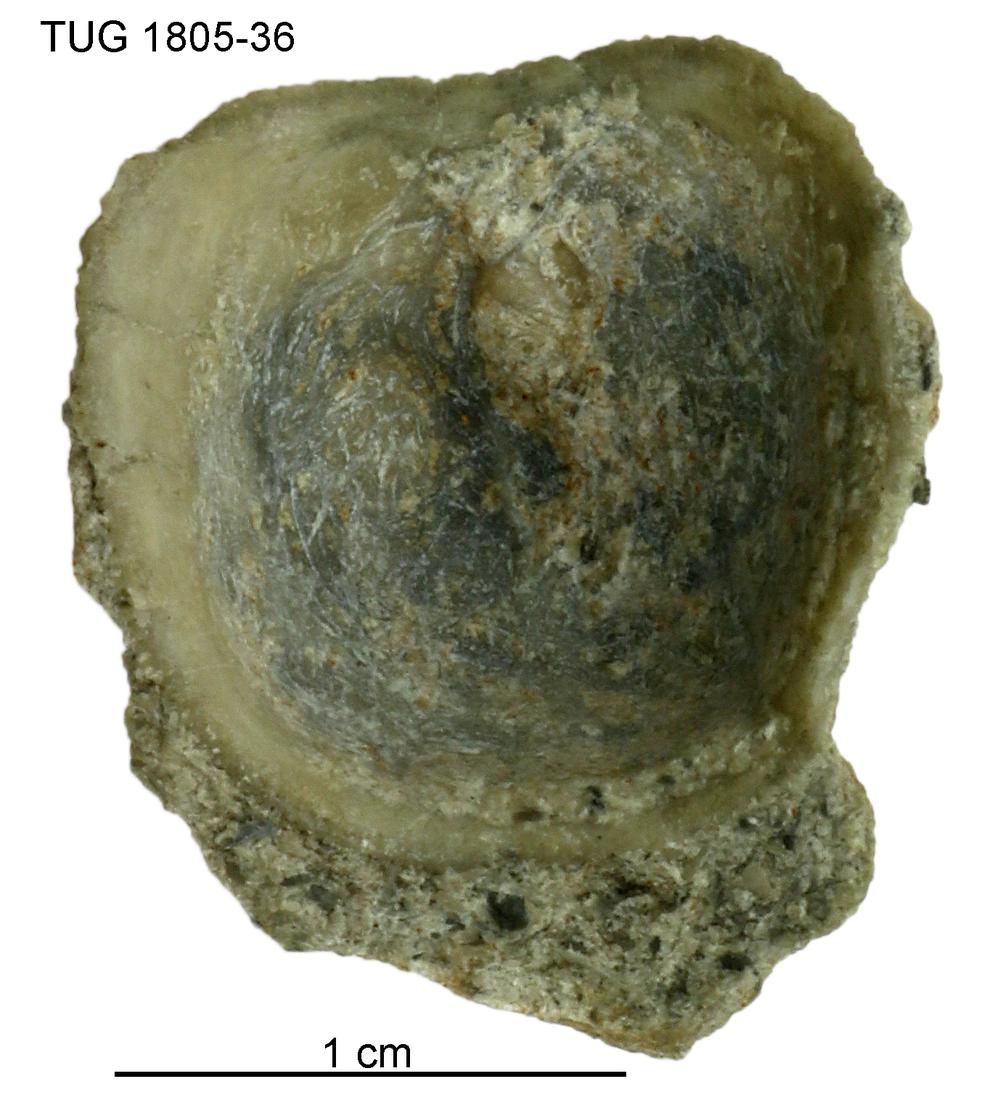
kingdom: Animalia
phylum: Mollusca
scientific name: Mollusca
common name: Mollusca
